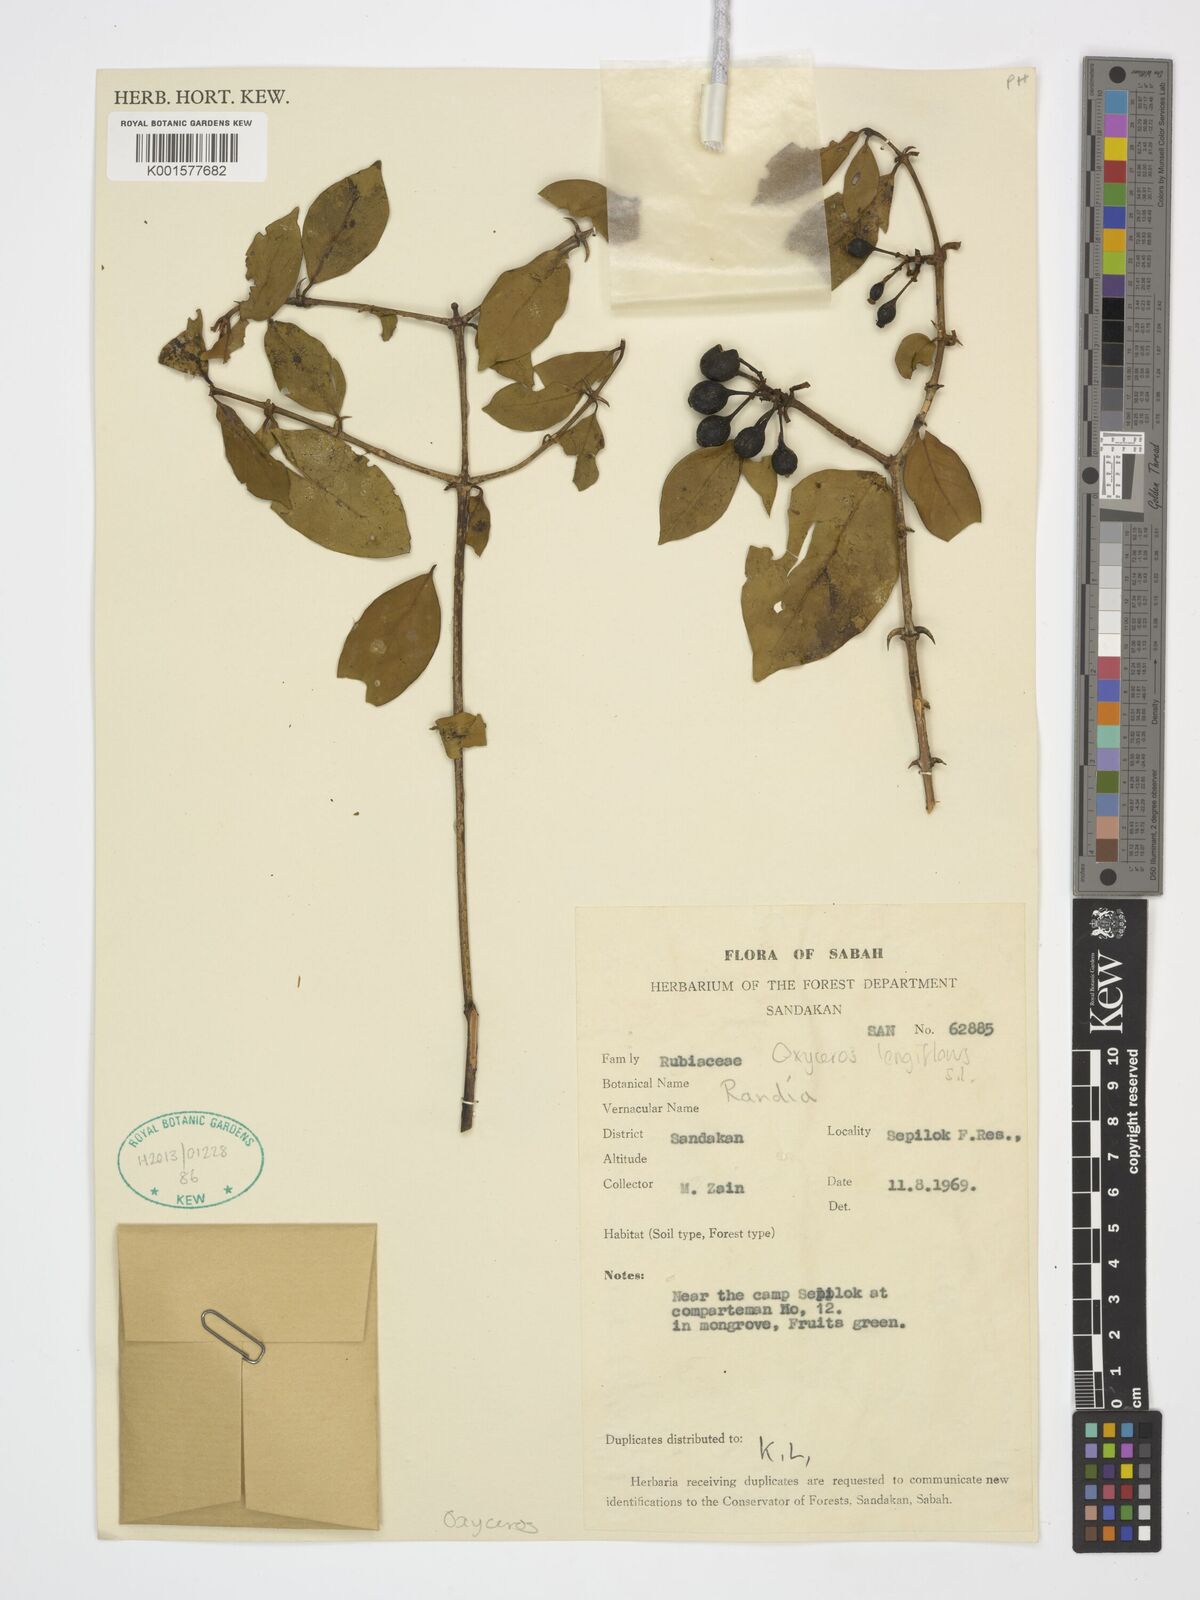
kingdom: Plantae
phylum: Tracheophyta
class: Magnoliopsida
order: Gentianales
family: Rubiaceae
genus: Oxyceros
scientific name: Oxyceros longiflorus
